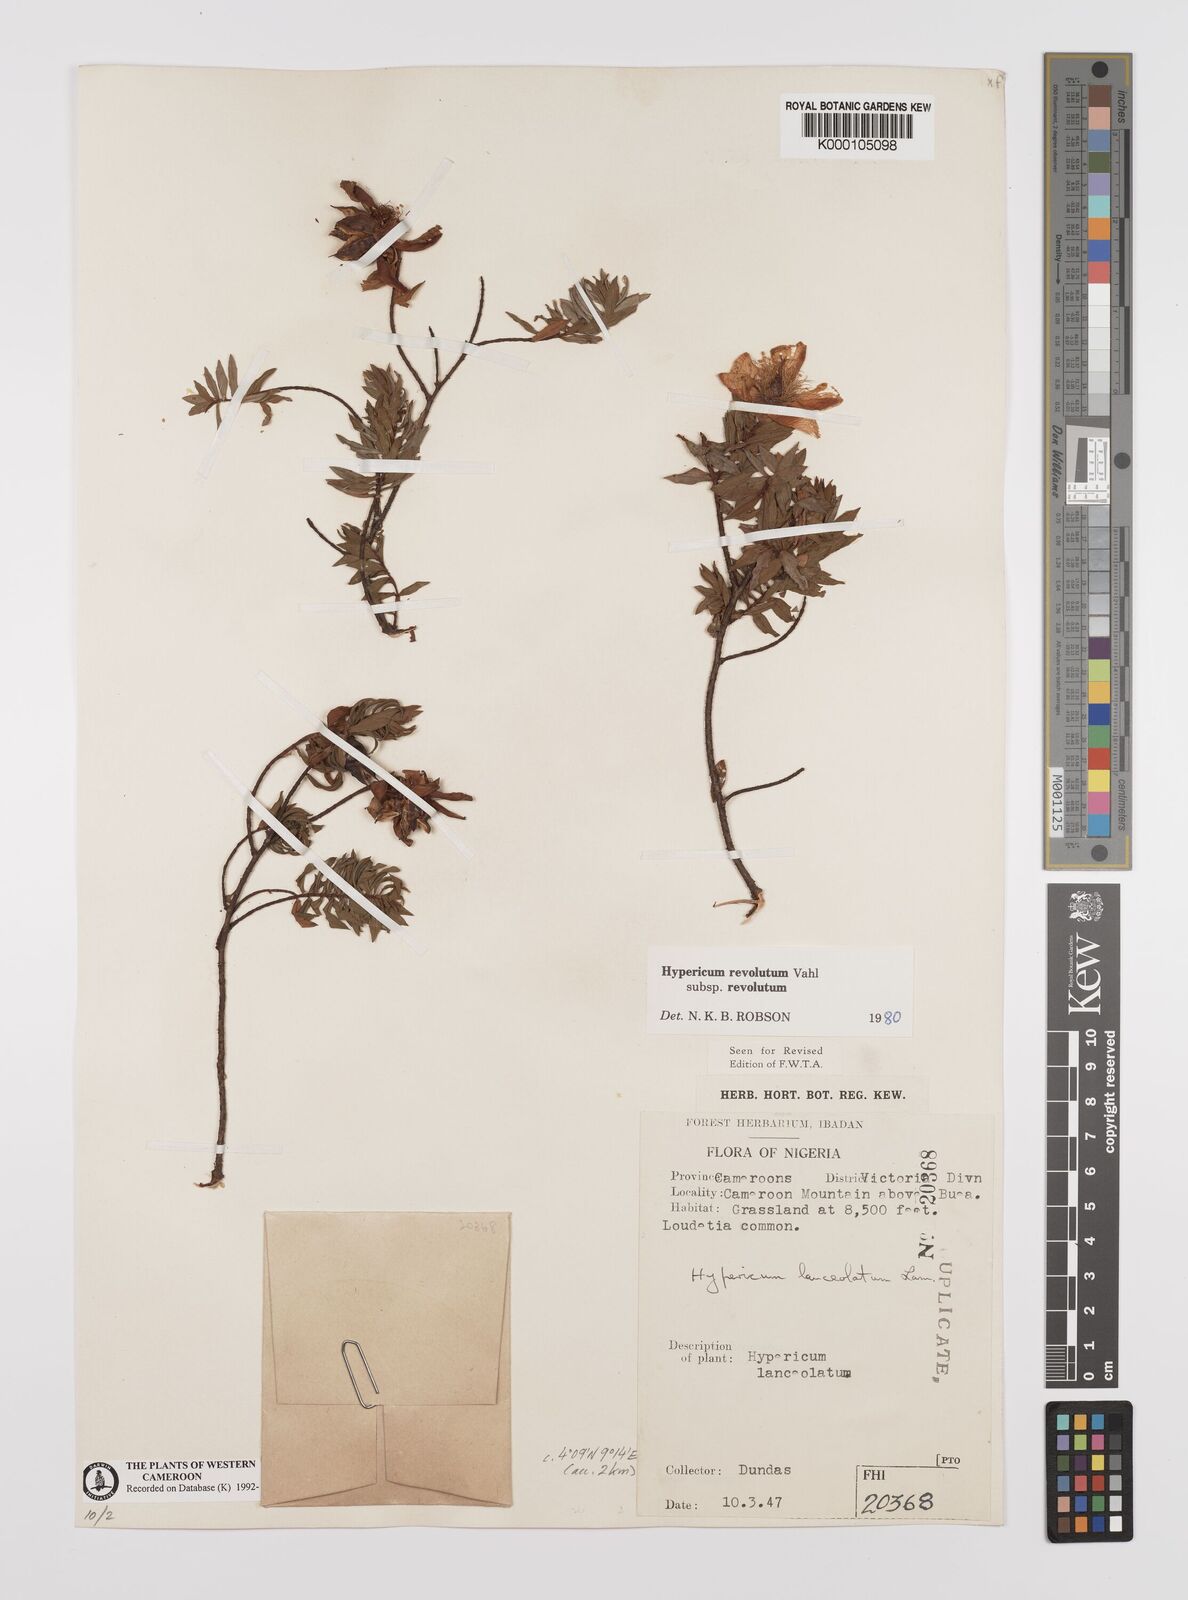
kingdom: Plantae
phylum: Tracheophyta
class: Magnoliopsida
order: Malpighiales
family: Hypericaceae
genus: Hypericum
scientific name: Hypericum revolutum
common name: Curry bush
